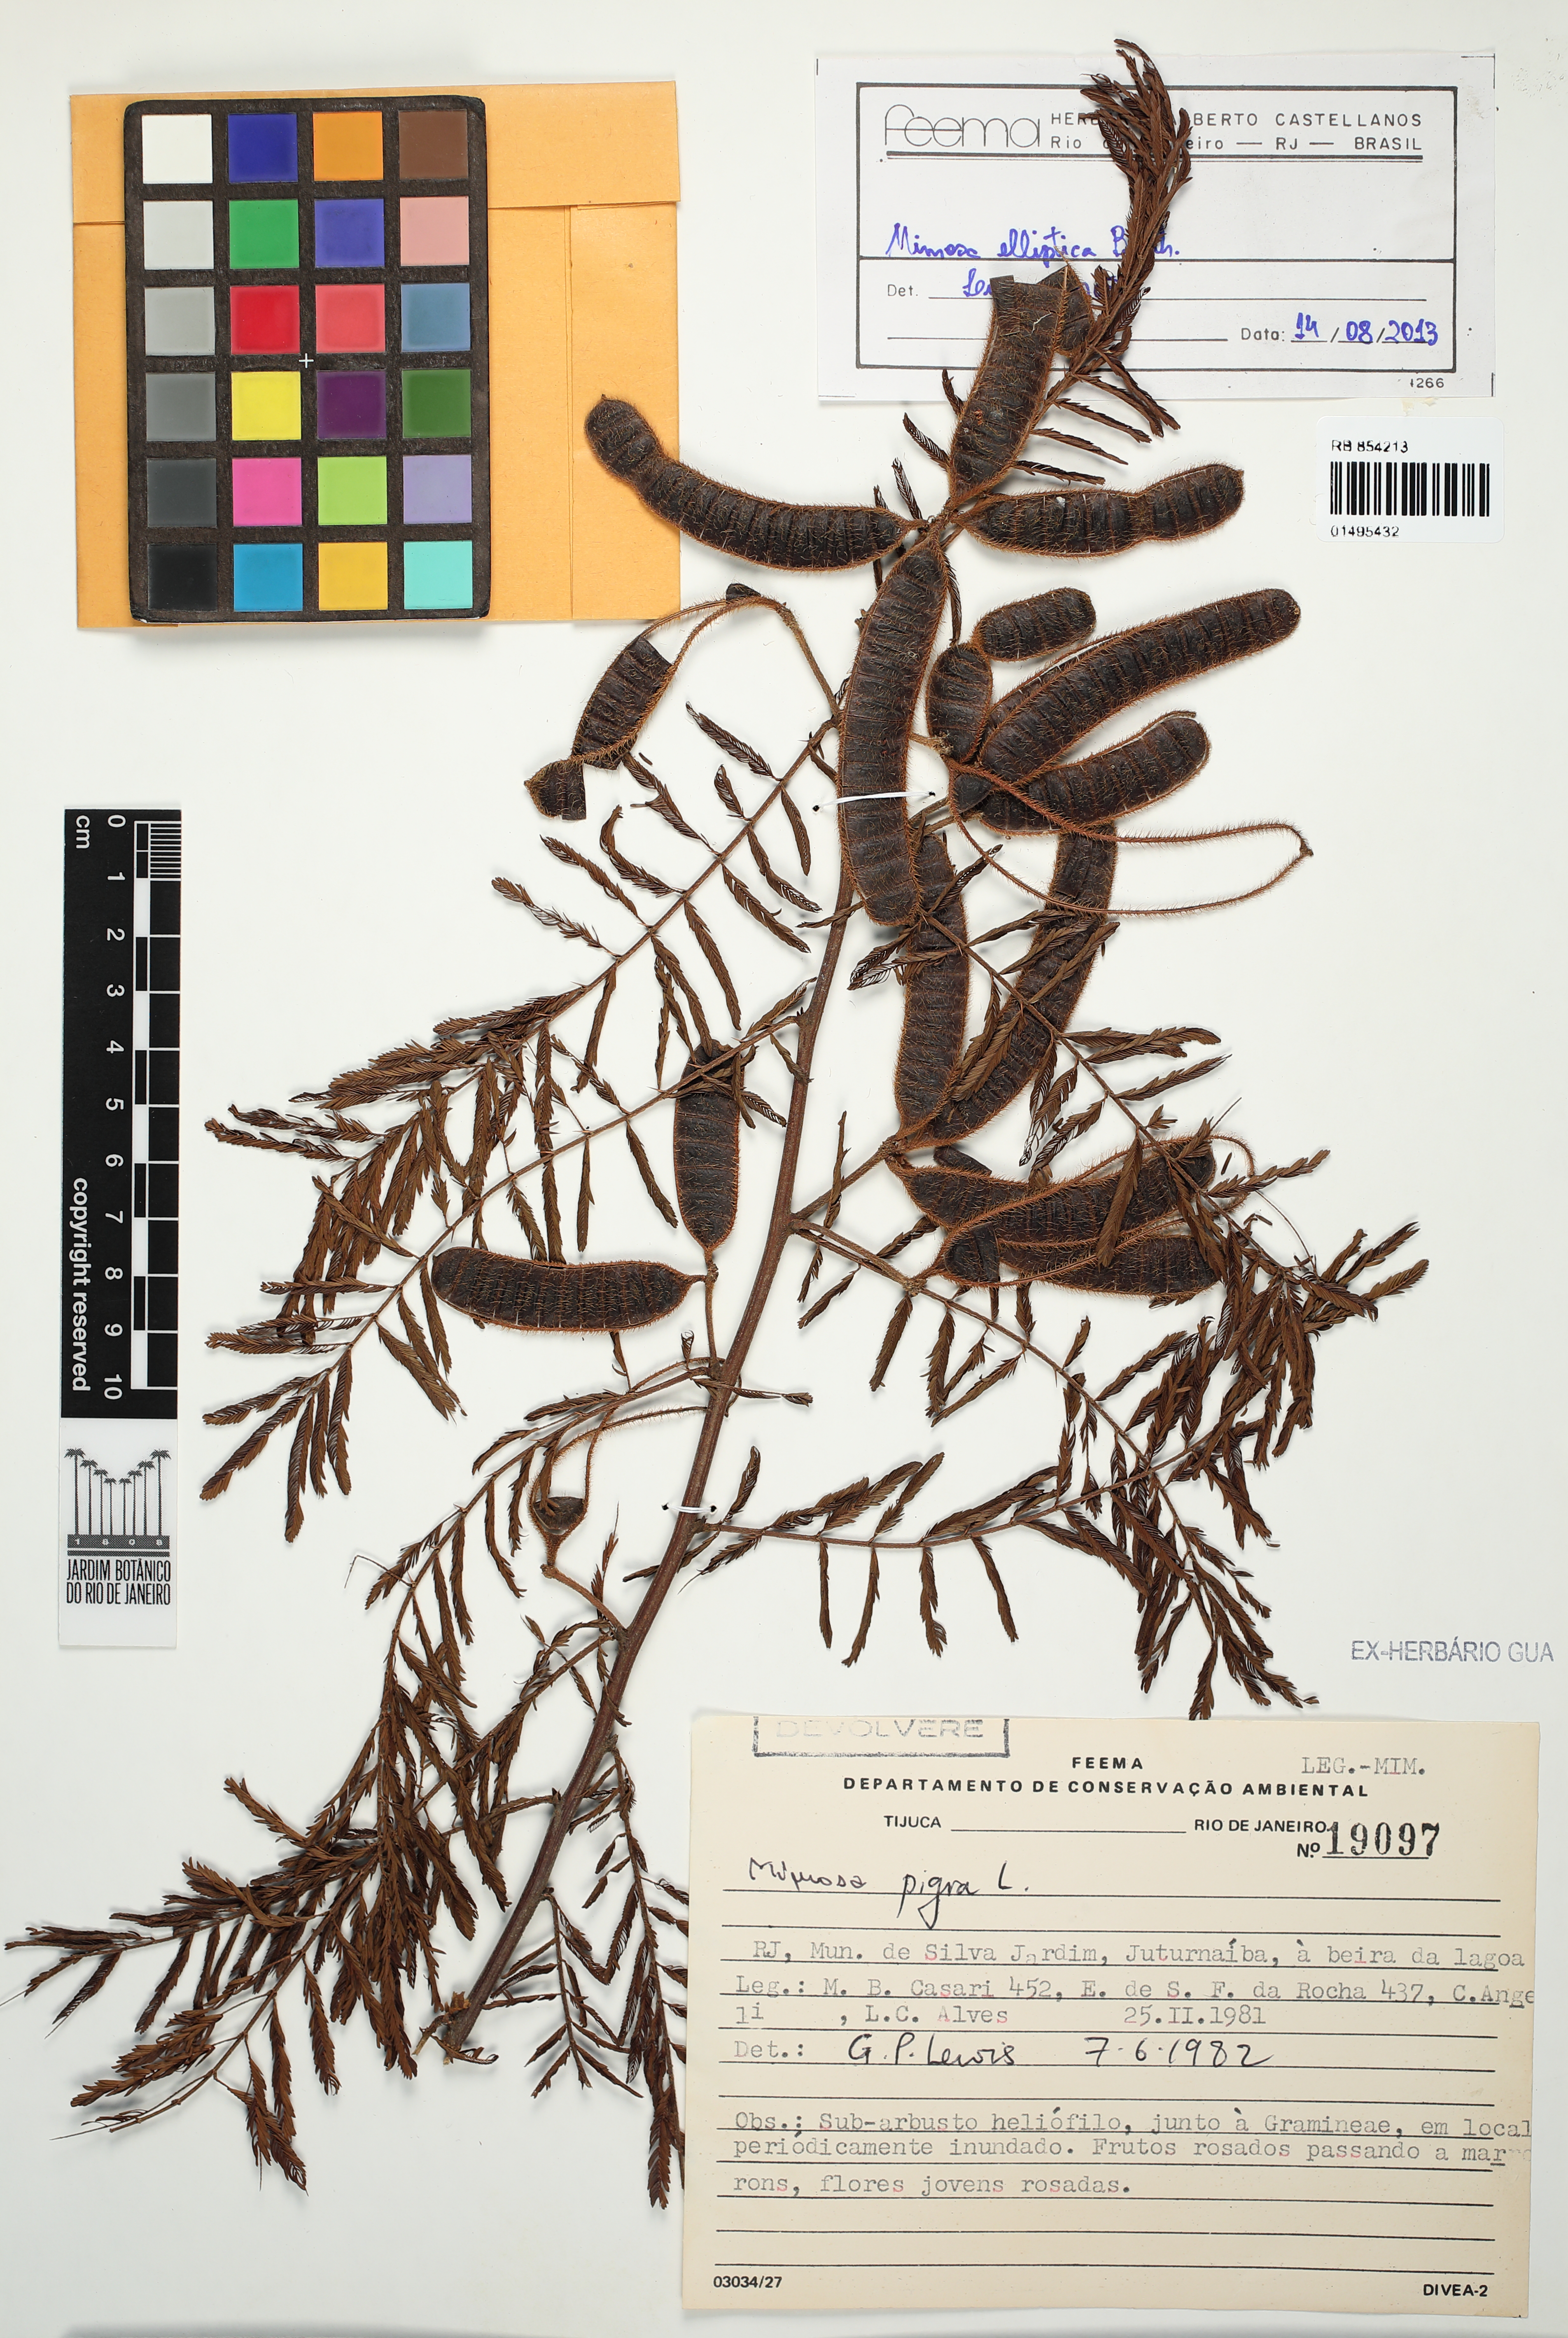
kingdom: Plantae
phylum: Tracheophyta
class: Magnoliopsida
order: Fabales
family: Fabaceae
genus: Mimosa
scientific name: Mimosa elliptica
